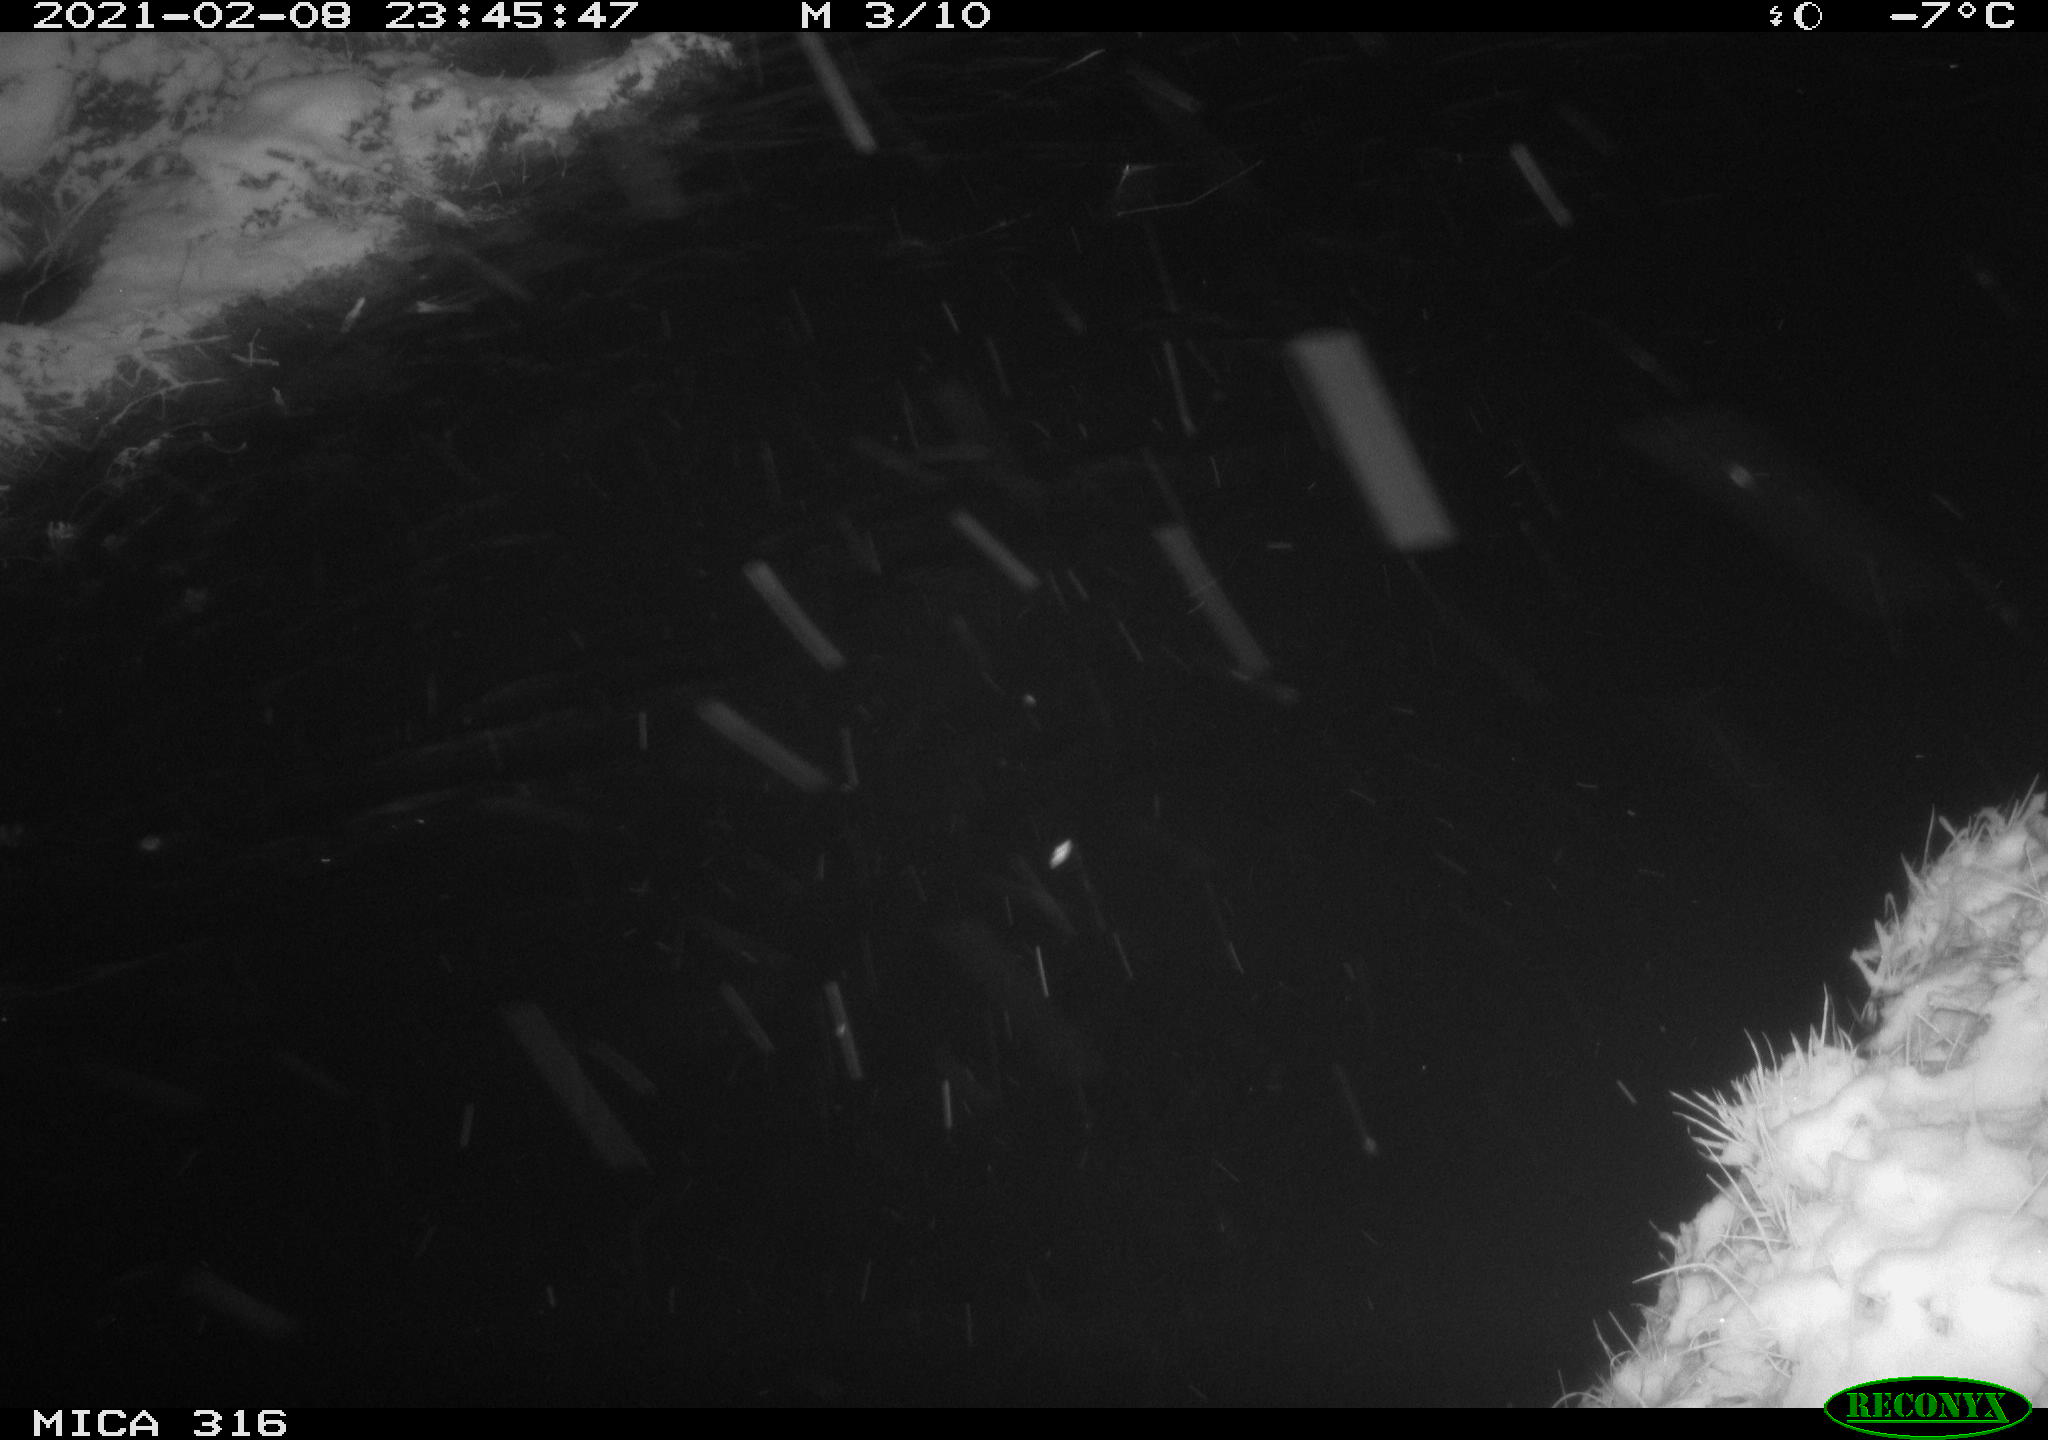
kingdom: Animalia
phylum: Chordata
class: Aves
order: Gruiformes
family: Rallidae
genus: Fulica
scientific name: Fulica atra
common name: Eurasian coot
